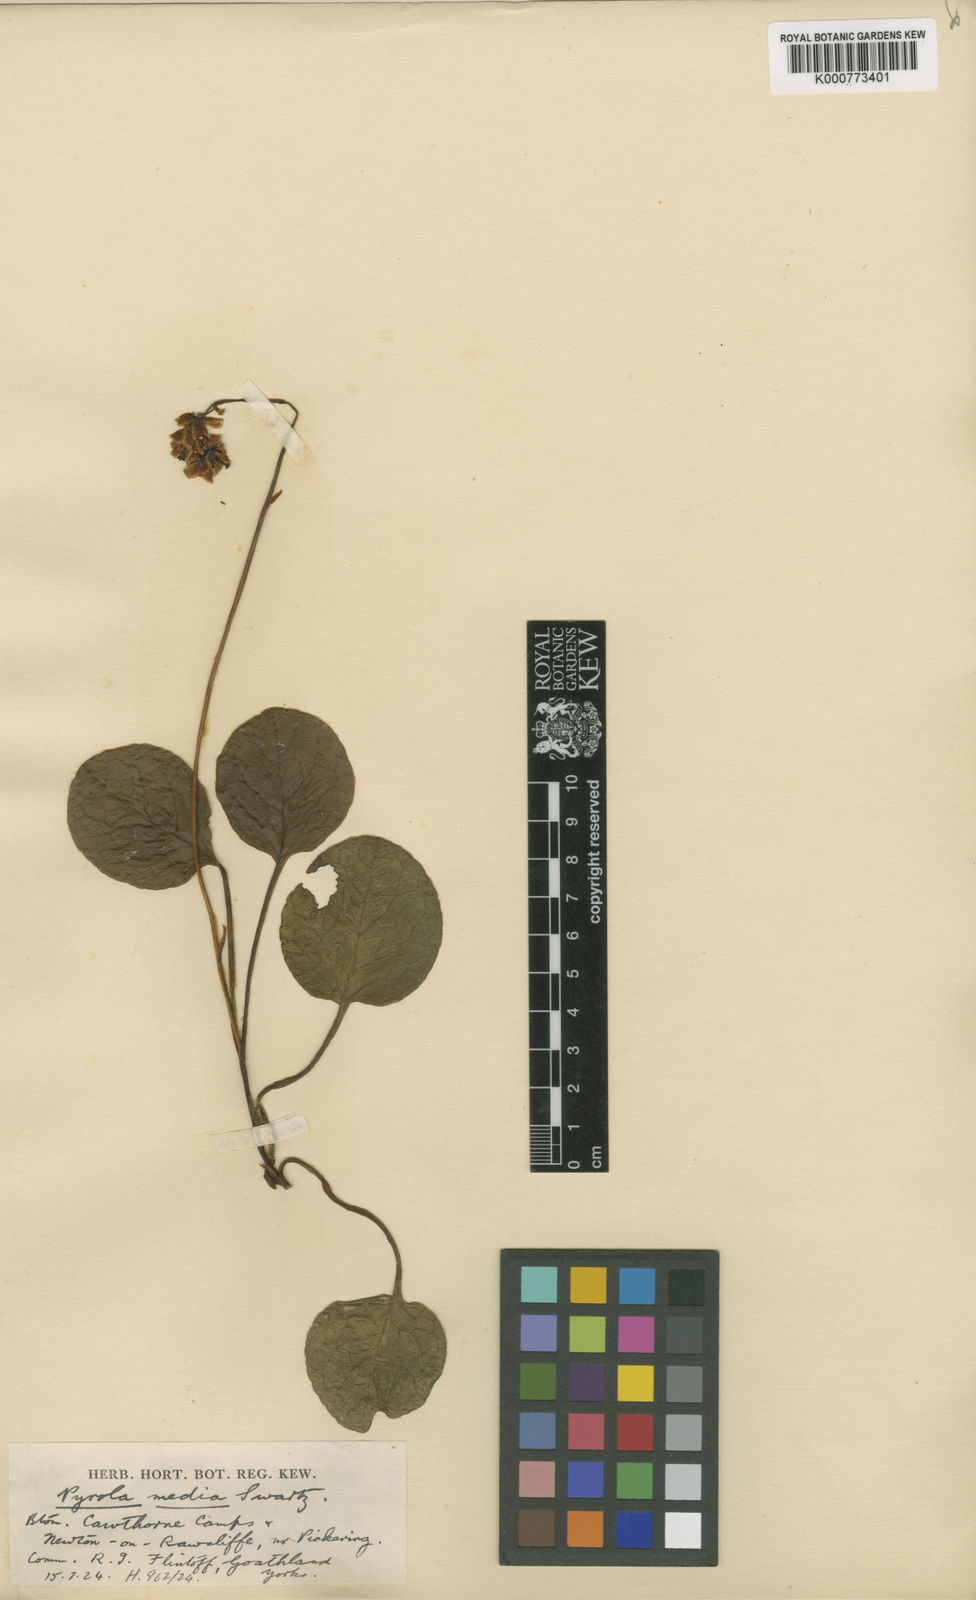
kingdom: Plantae
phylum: Tracheophyta
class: Magnoliopsida
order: Ericales
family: Ericaceae
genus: Pyrola
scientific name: Pyrola media
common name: Intermediate wintergreen
